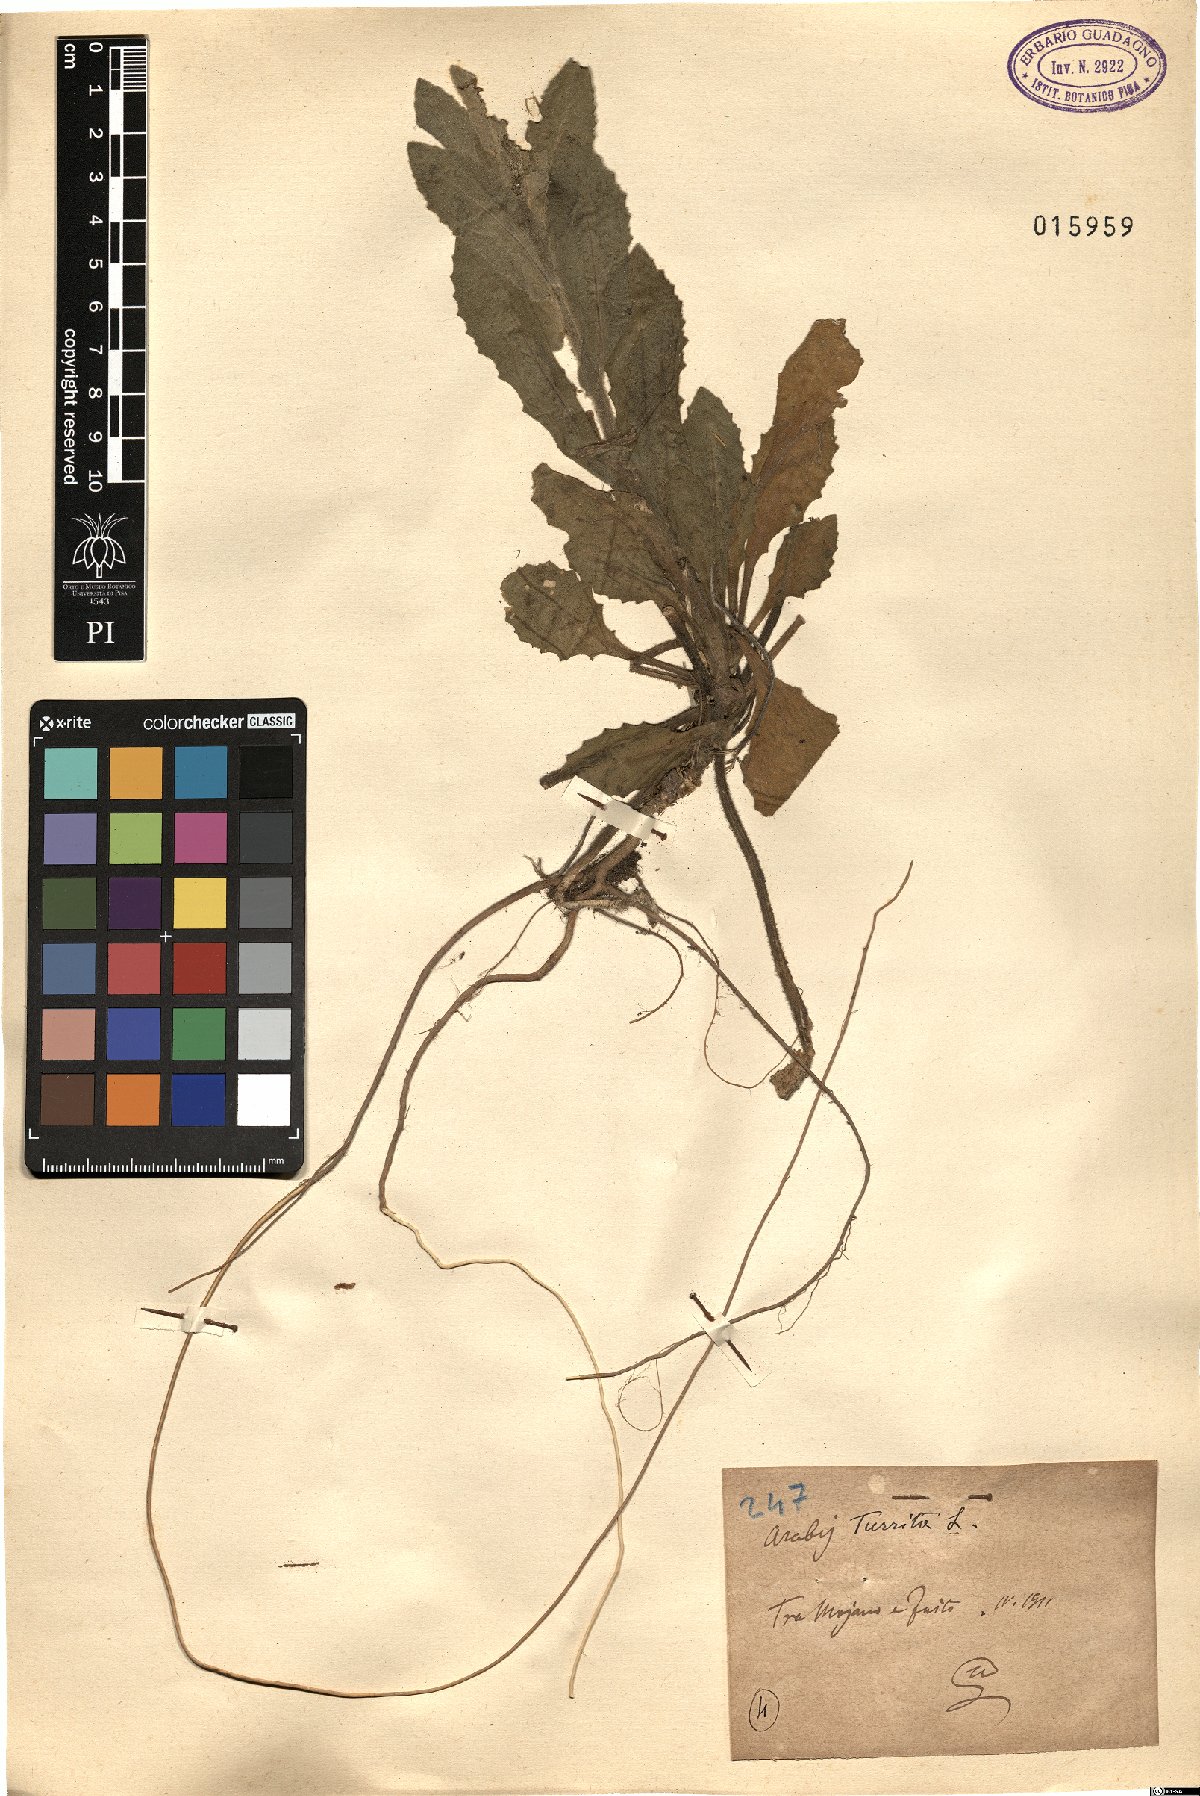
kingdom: Plantae
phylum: Tracheophyta
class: Magnoliopsida
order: Brassicales
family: Brassicaceae
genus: Pseudoturritis
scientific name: Pseudoturritis turrita
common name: Tower cress
